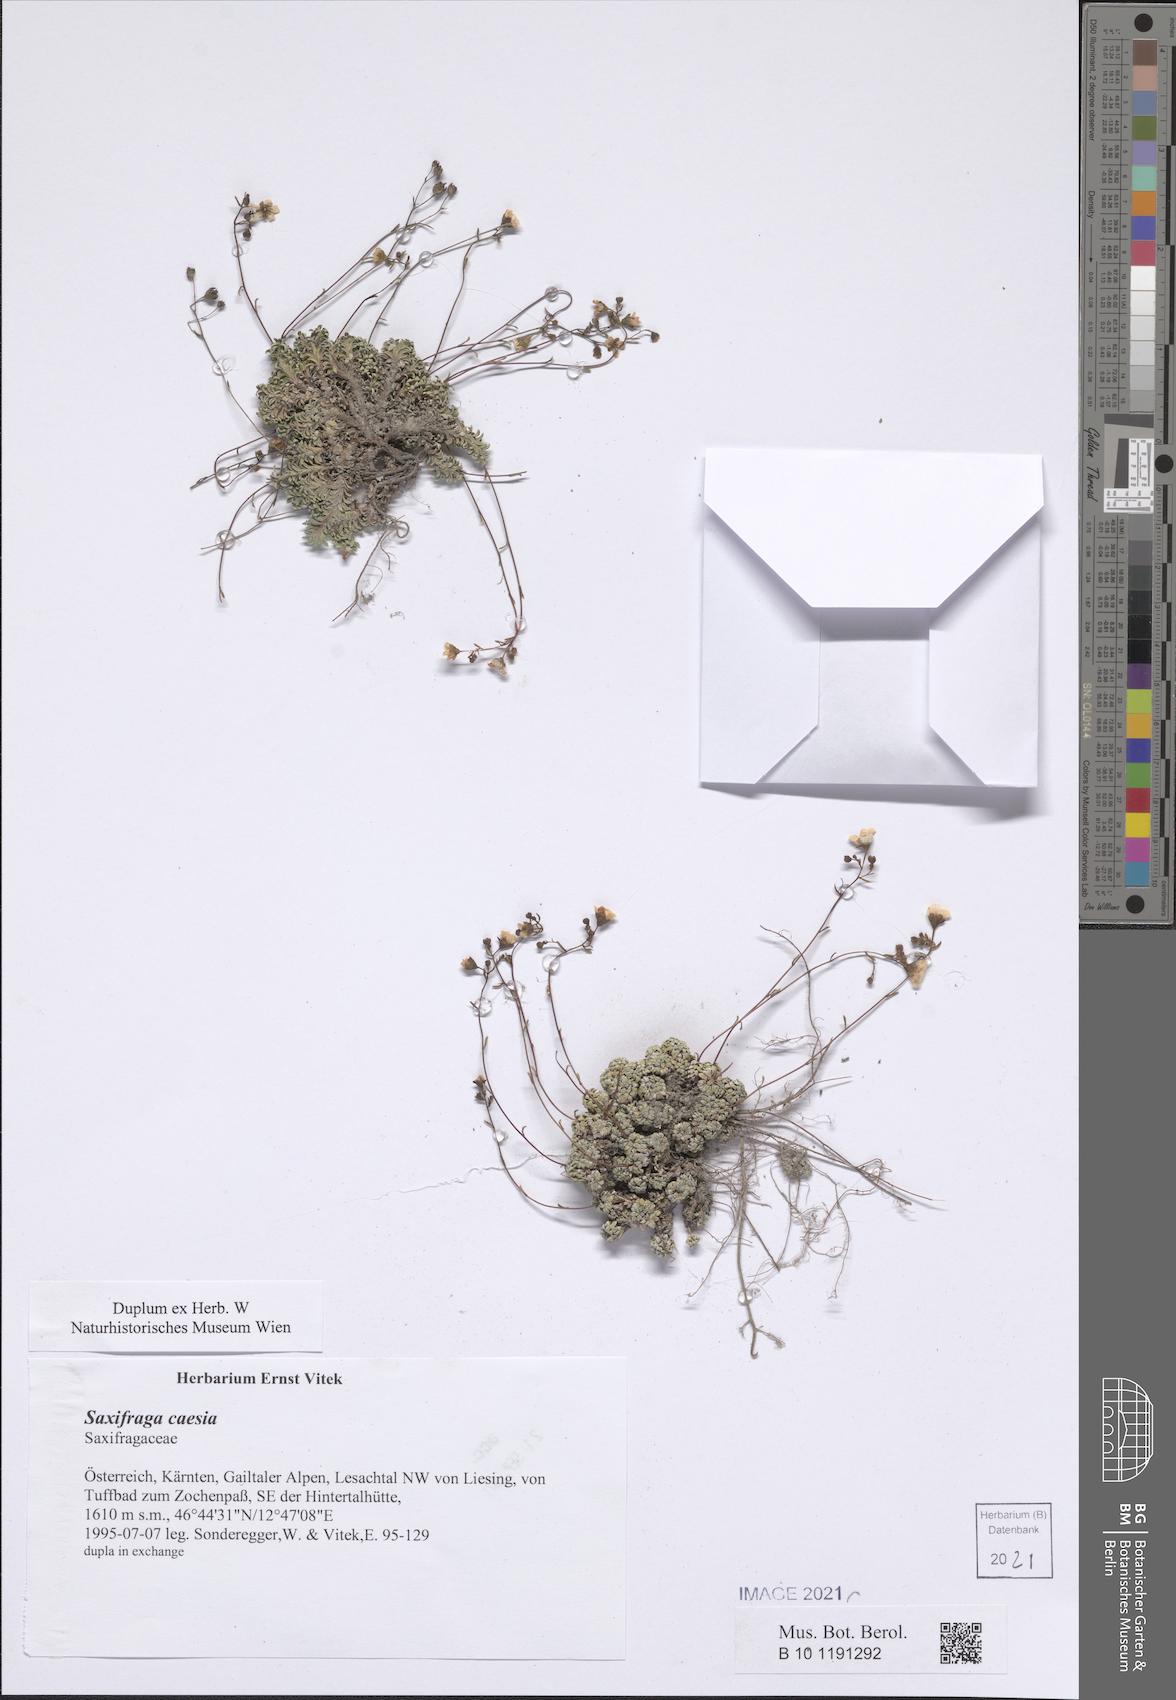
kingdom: Plantae
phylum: Tracheophyta
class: Magnoliopsida
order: Saxifragales
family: Saxifragaceae
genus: Saxifraga
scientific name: Saxifraga caesia
